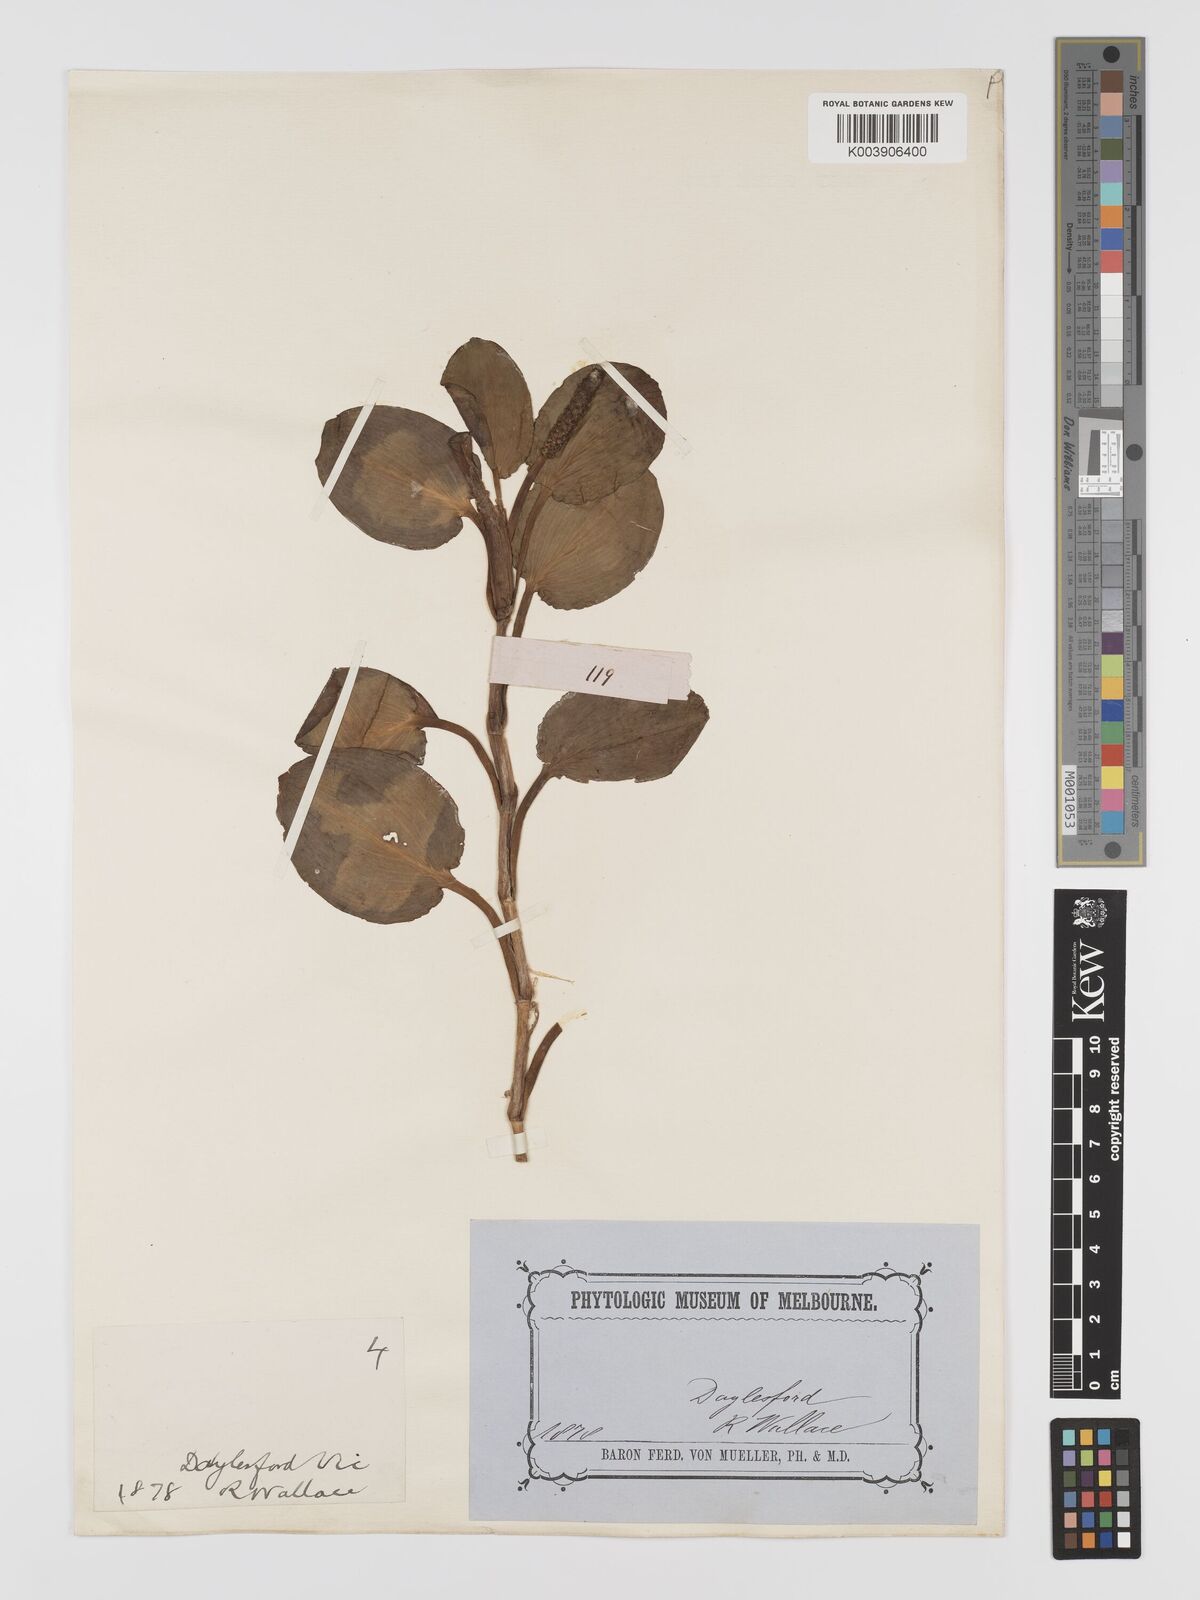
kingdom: Plantae
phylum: Tracheophyta
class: Liliopsida
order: Alismatales
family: Potamogetonaceae
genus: Potamogeton
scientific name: Potamogeton tricarinatus
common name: Pondweed
